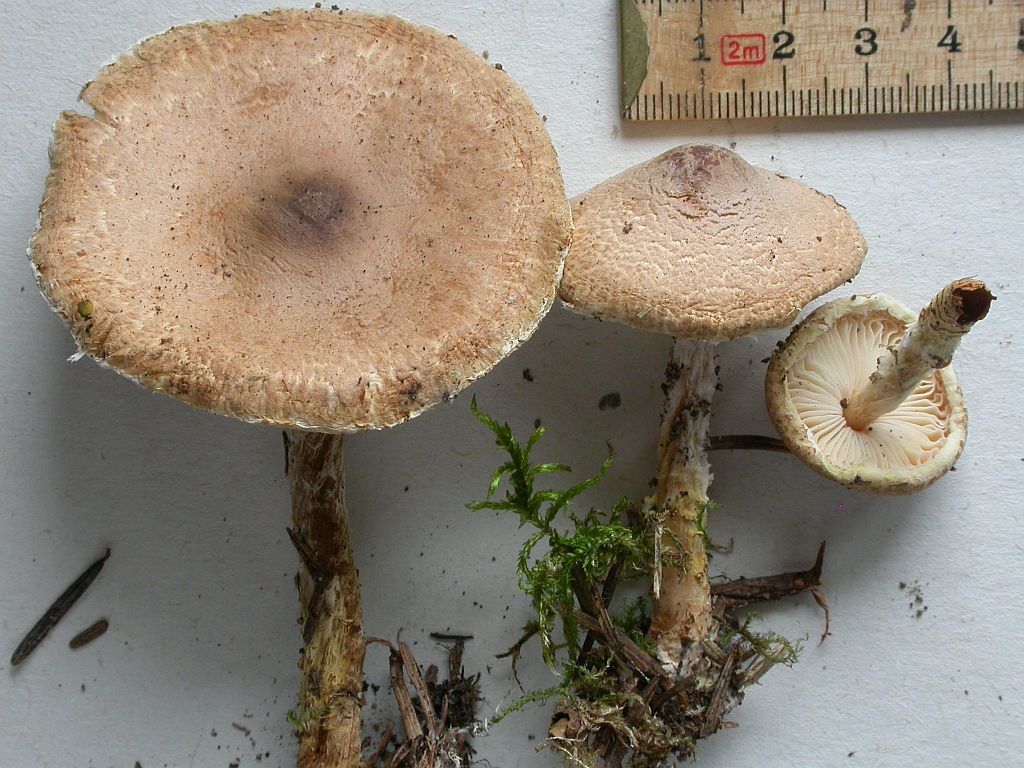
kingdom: Fungi
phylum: Basidiomycota
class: Agaricomycetes
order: Agaricales
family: Agaricaceae
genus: Lepiota
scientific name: Lepiota magnispora
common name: gulfnugget parasolhat
